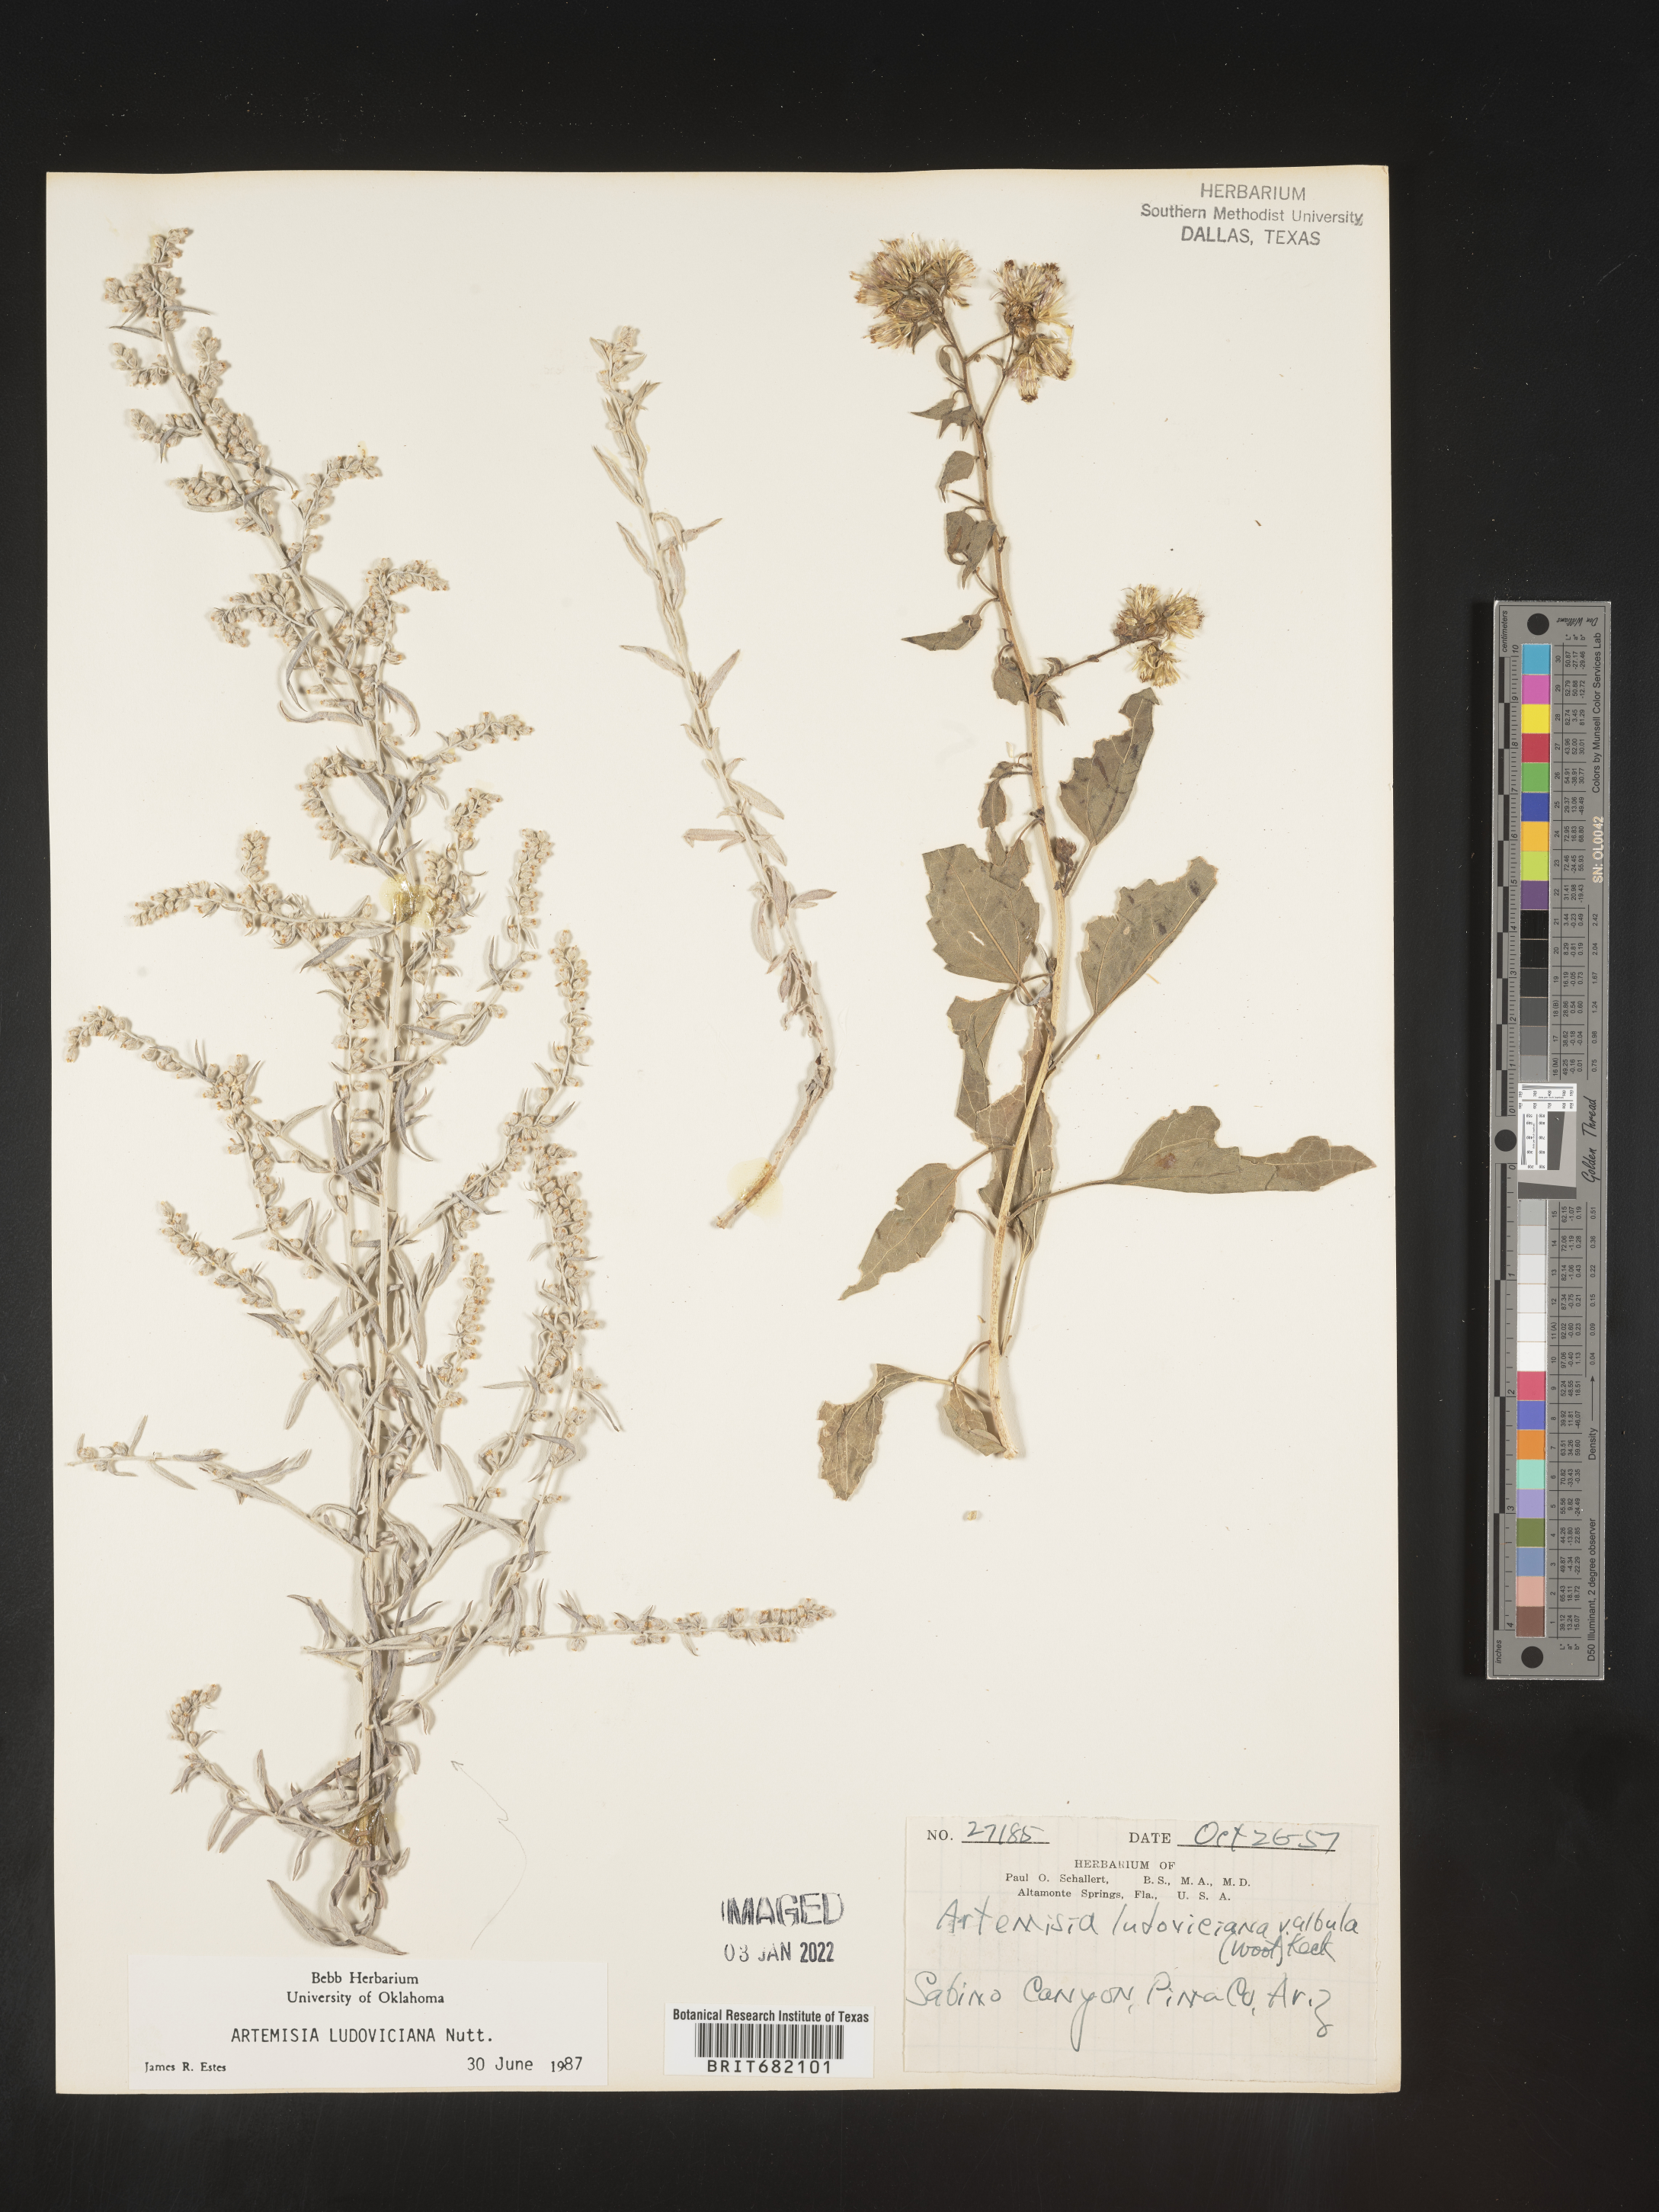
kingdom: Plantae
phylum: Tracheophyta
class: Magnoliopsida
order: Asterales
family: Asteraceae
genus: Artemisia
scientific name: Artemisia ludoviciana
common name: Western mugwort
